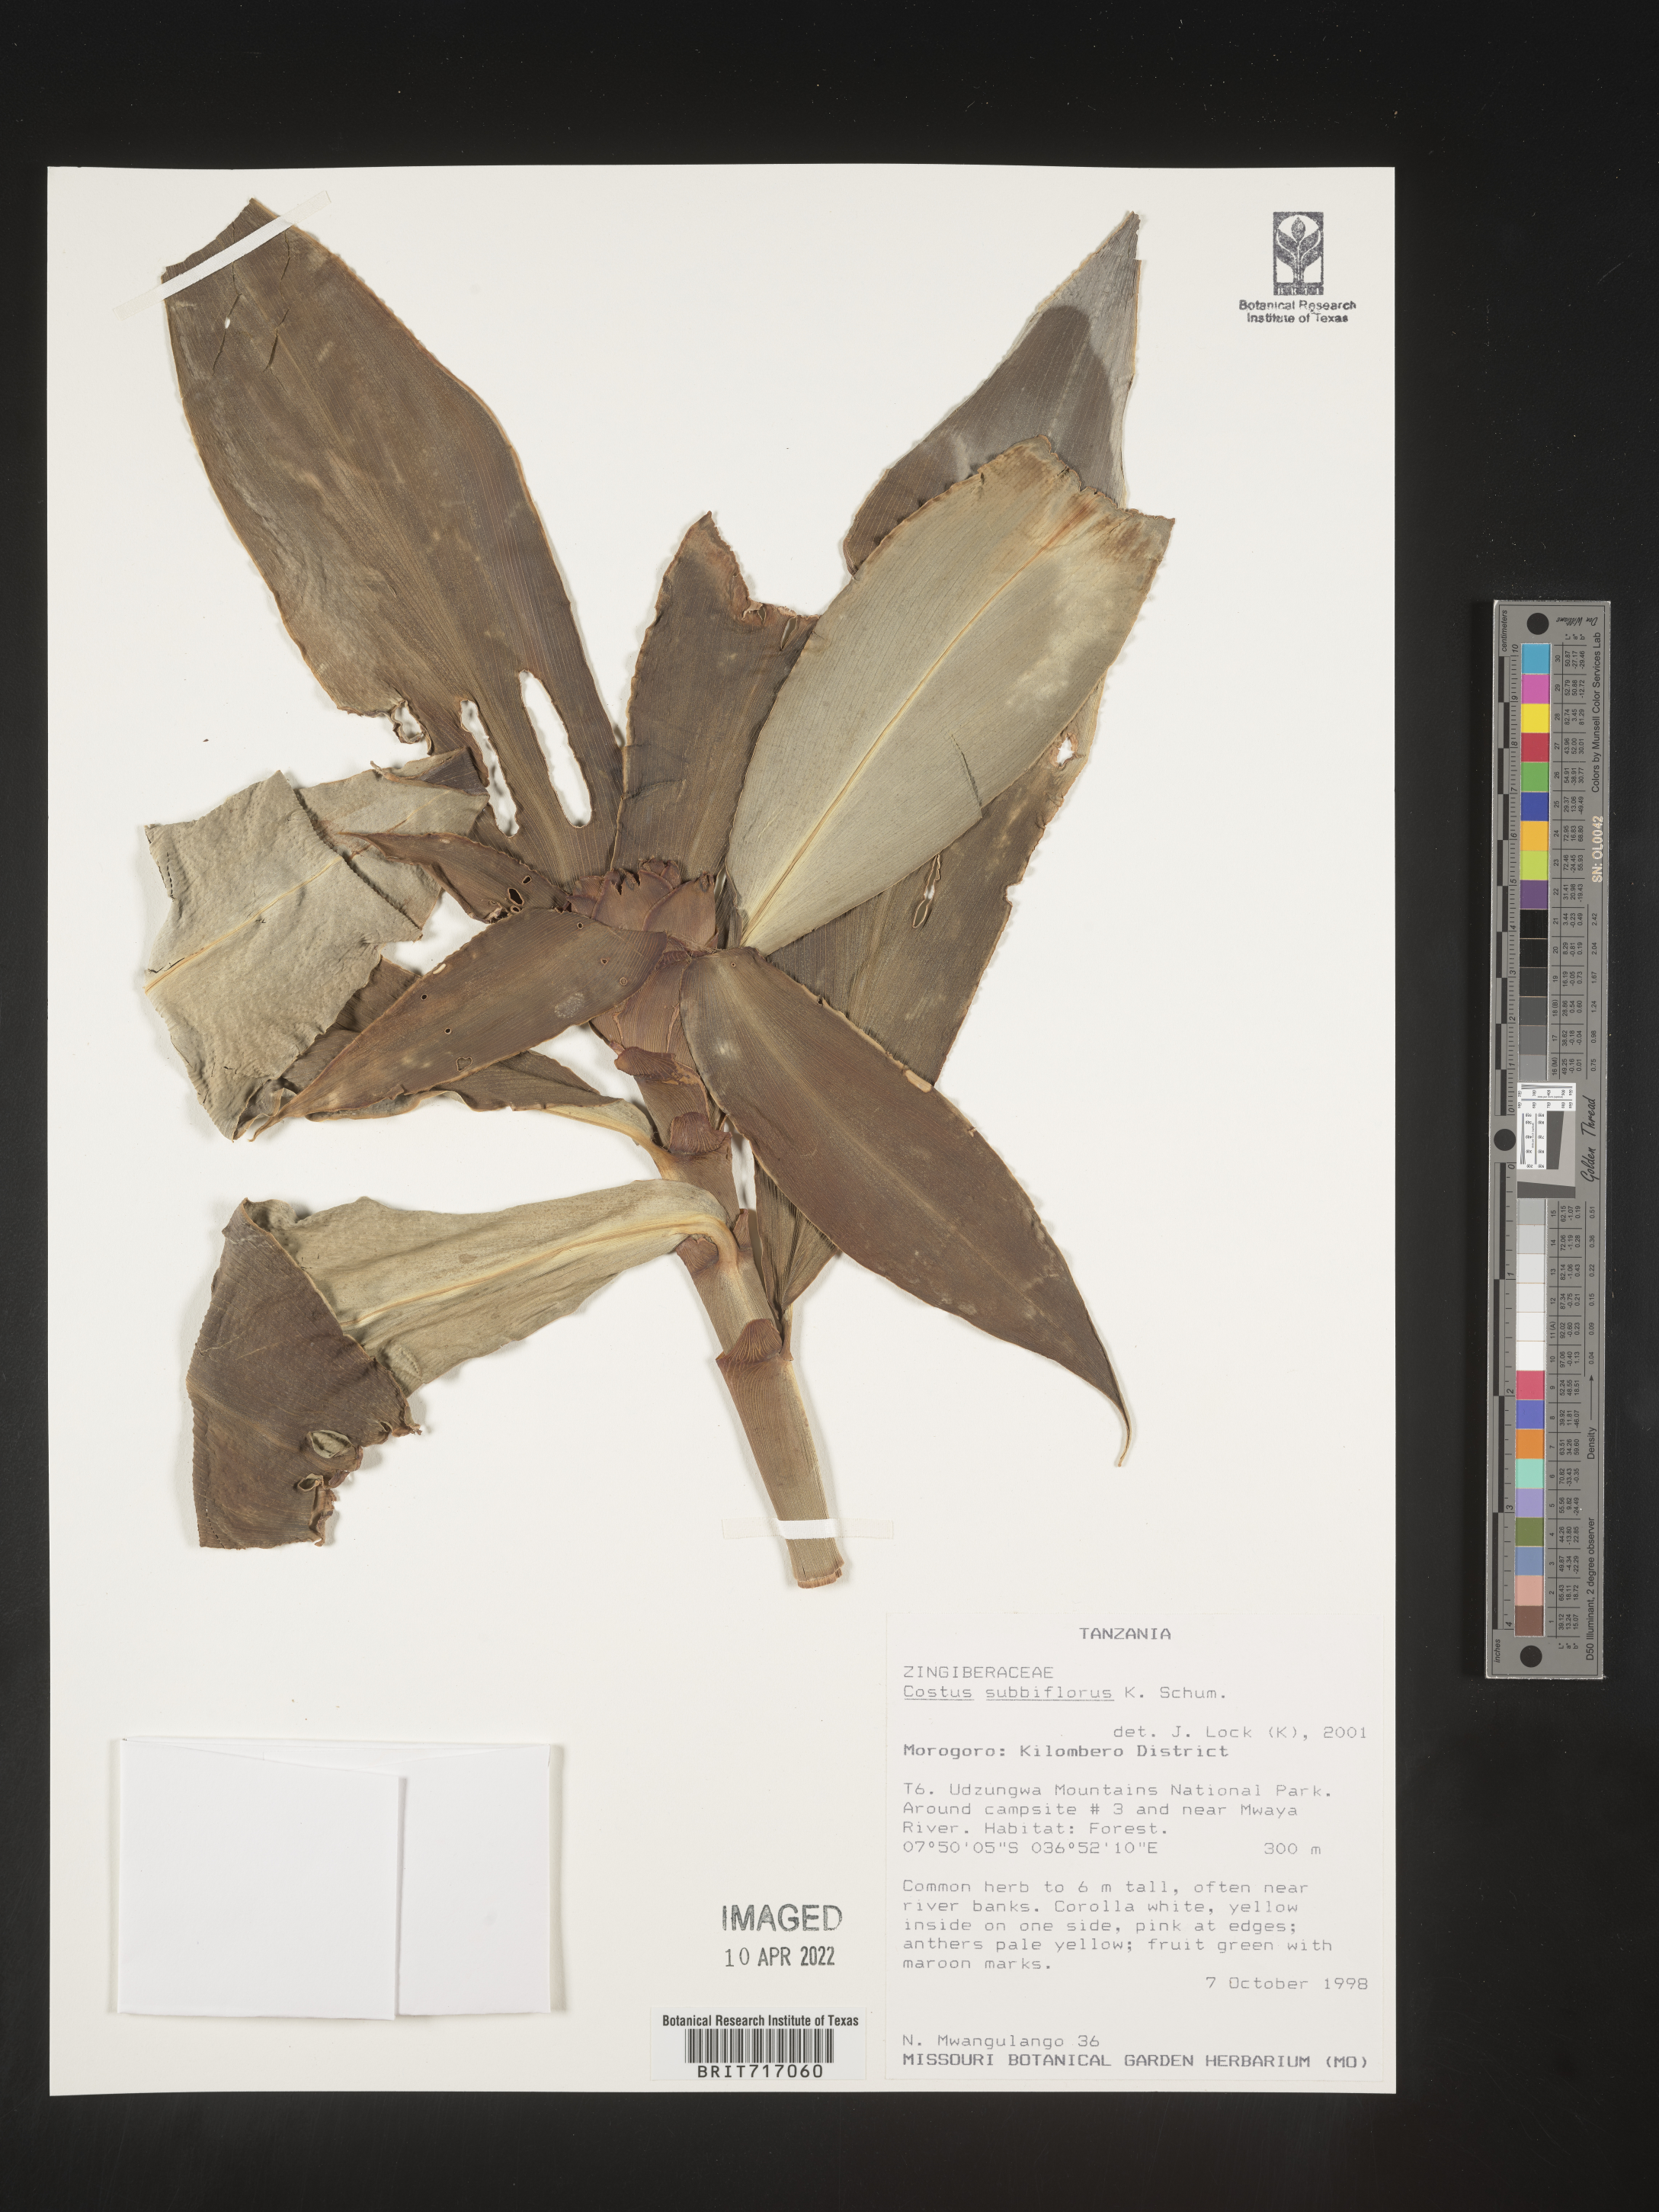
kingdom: Plantae
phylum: Tracheophyta
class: Liliopsida
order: Zingiberales
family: Costaceae
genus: Costus
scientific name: Costus
